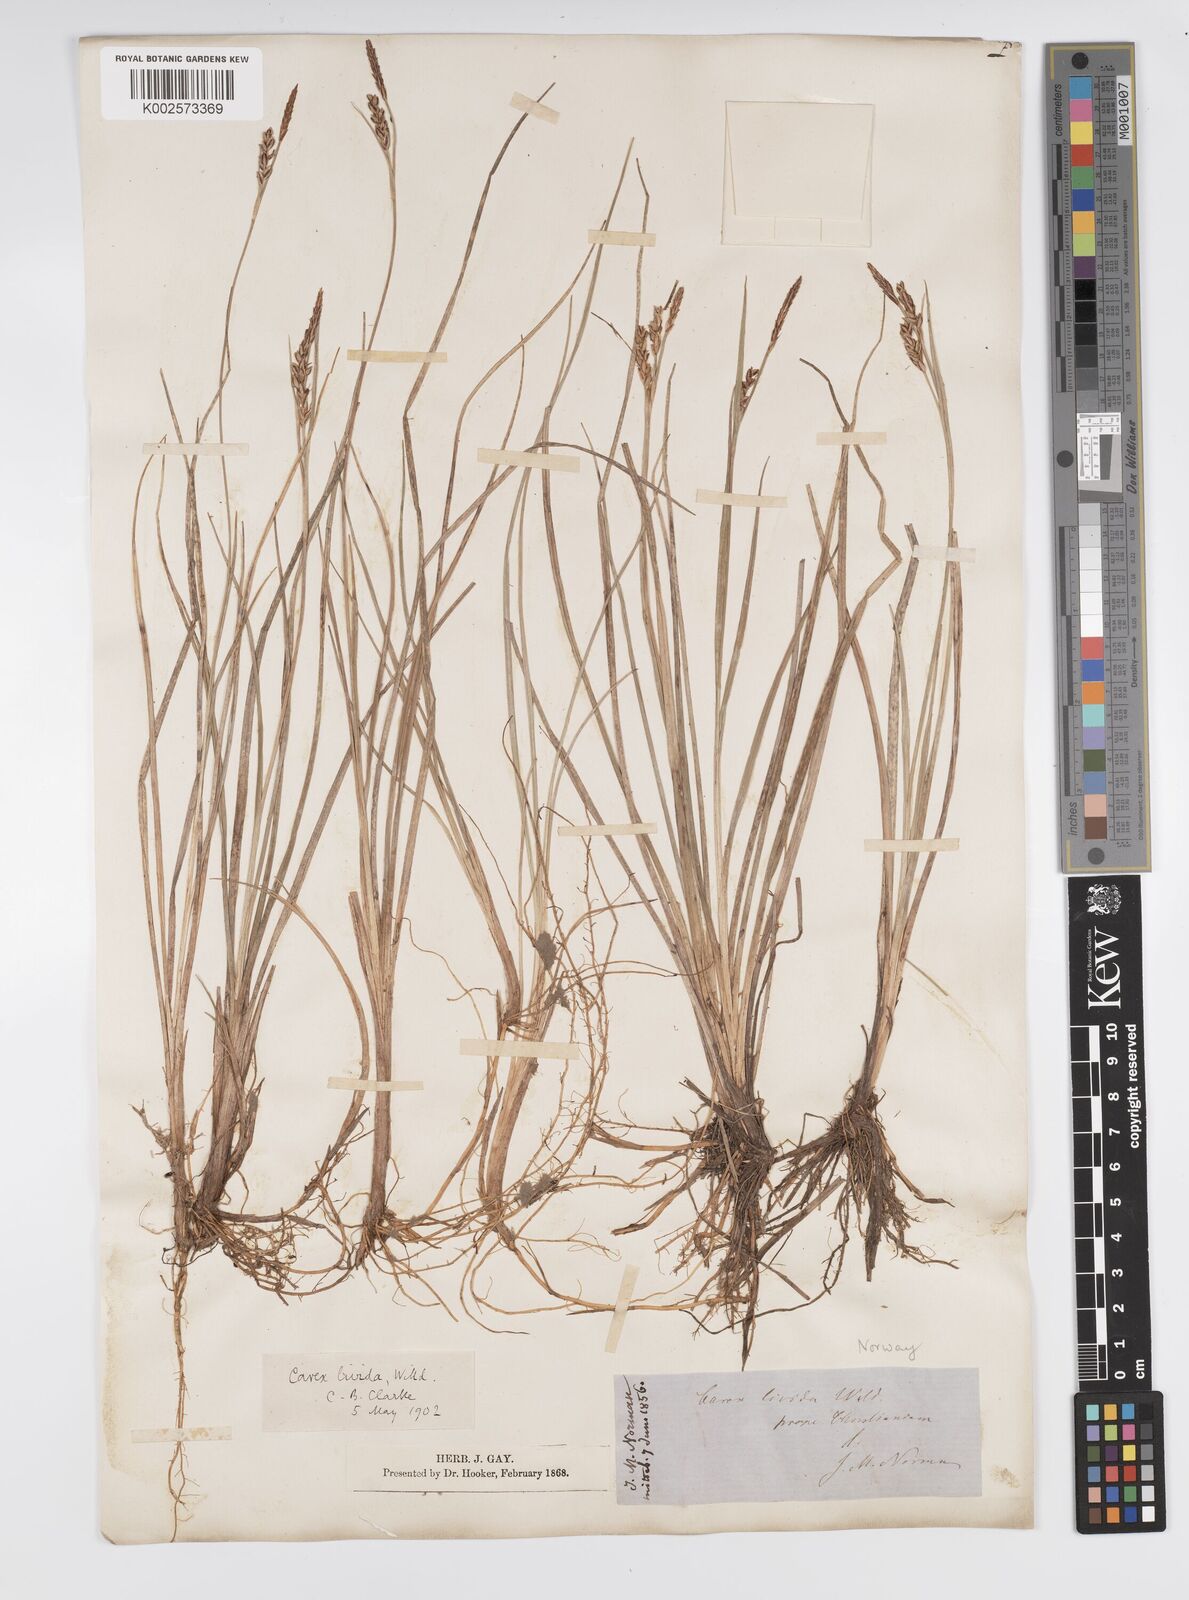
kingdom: Plantae
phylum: Tracheophyta
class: Liliopsida
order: Poales
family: Cyperaceae
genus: Carex
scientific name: Carex livida
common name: Livid sedge
